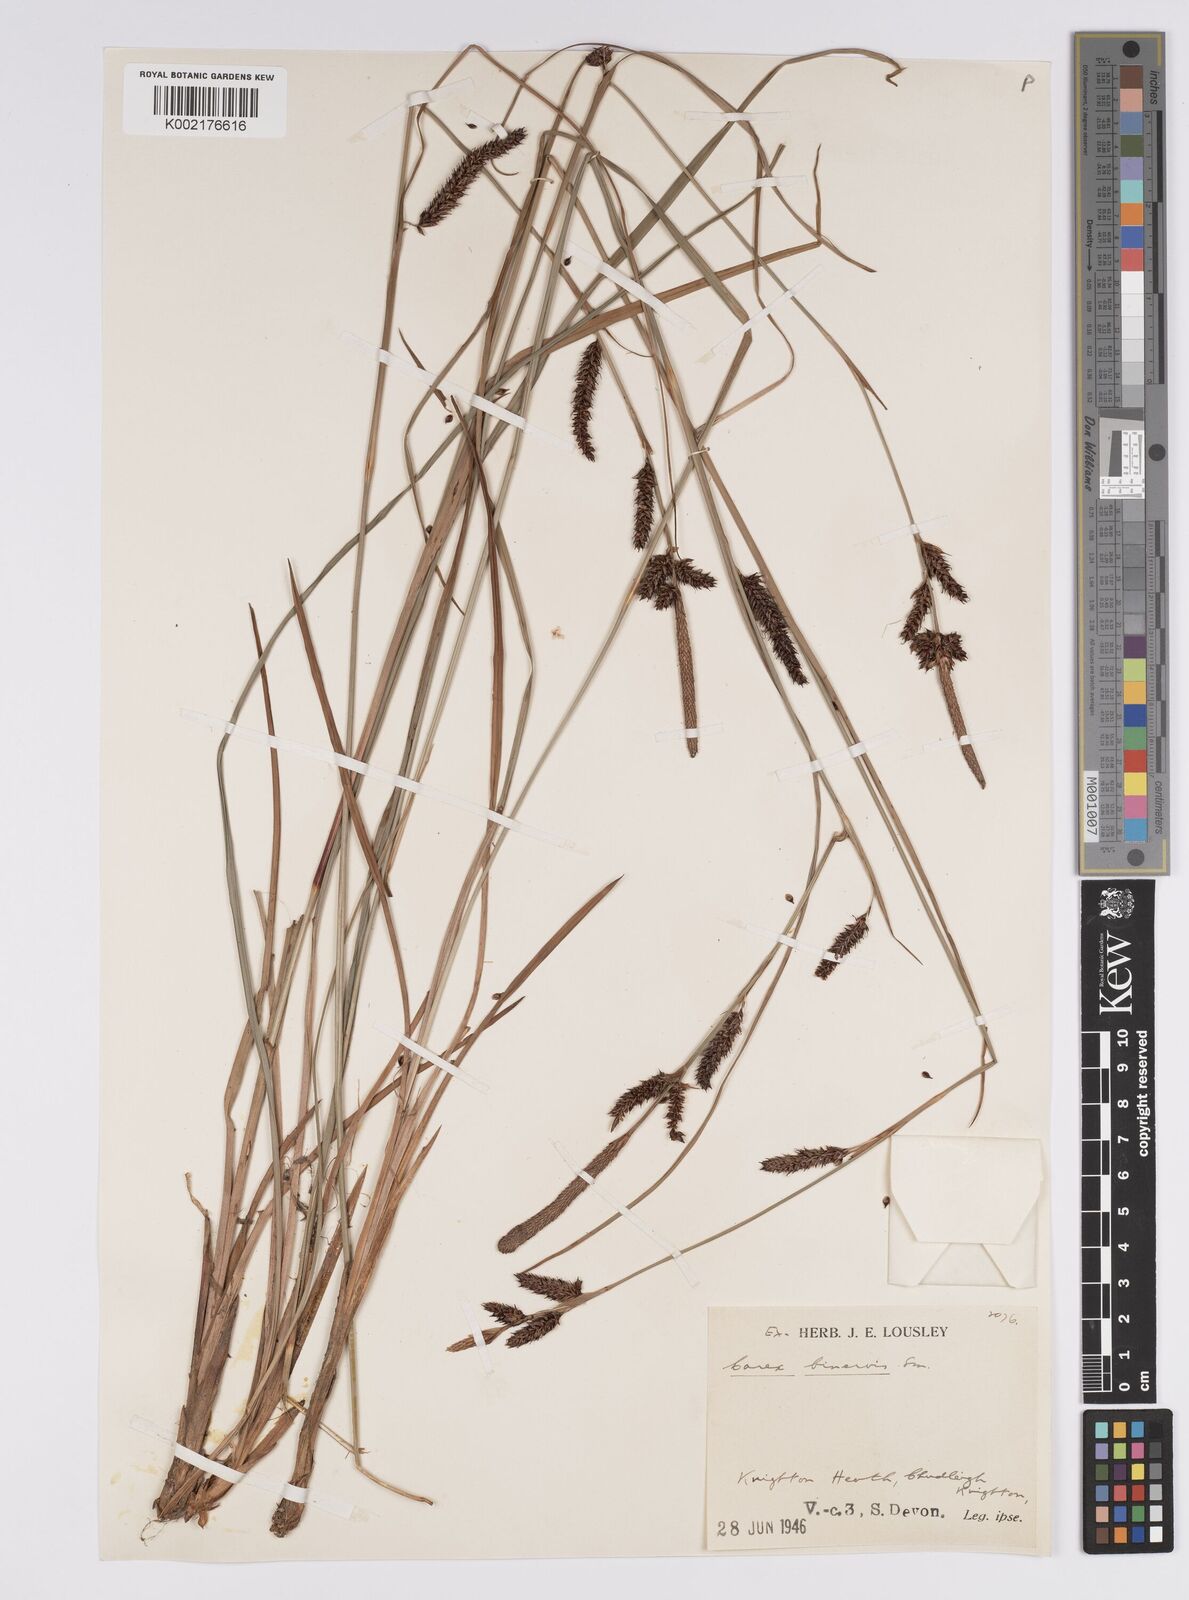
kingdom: Plantae
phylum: Tracheophyta
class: Liliopsida
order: Poales
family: Cyperaceae
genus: Carex
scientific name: Carex binervis
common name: Green-ribbed sedge
